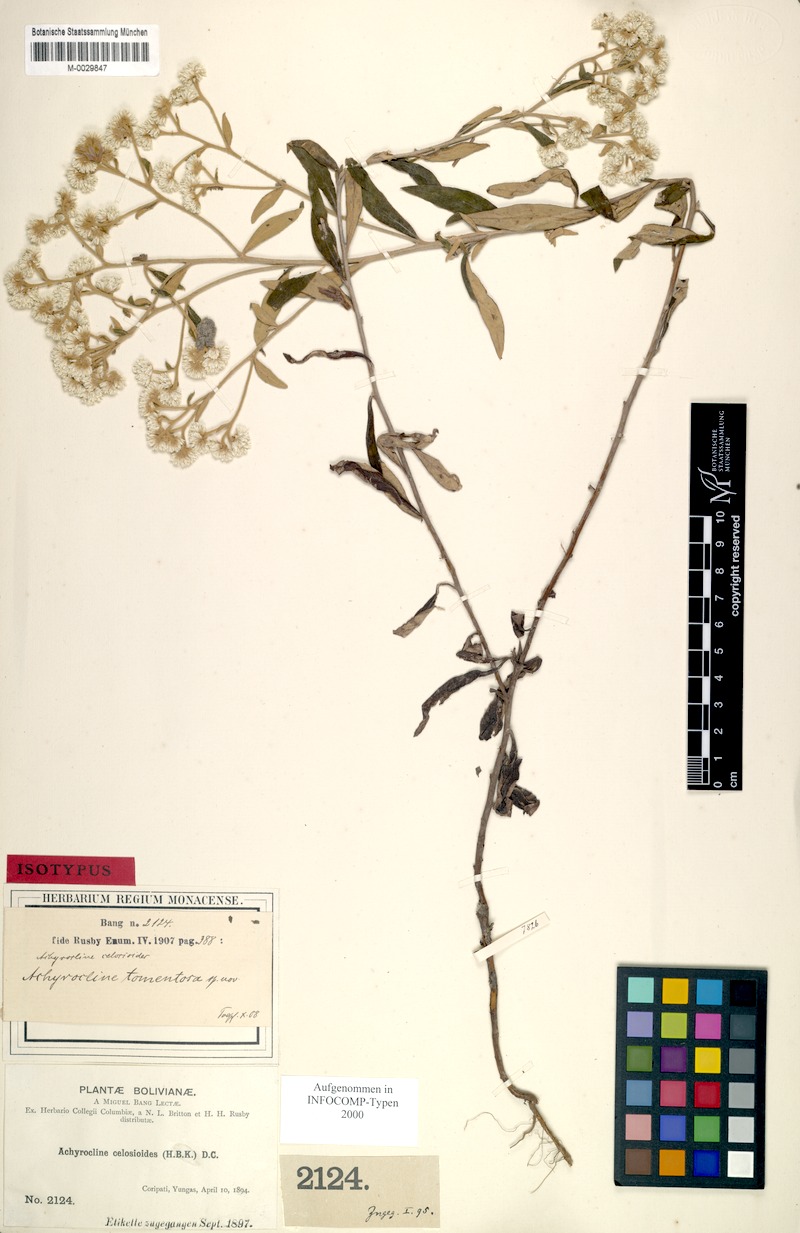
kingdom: Plantae
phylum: Tracheophyta
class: Magnoliopsida
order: Asterales
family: Asteraceae
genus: Achyrocline
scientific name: Achyrocline tomentosa
